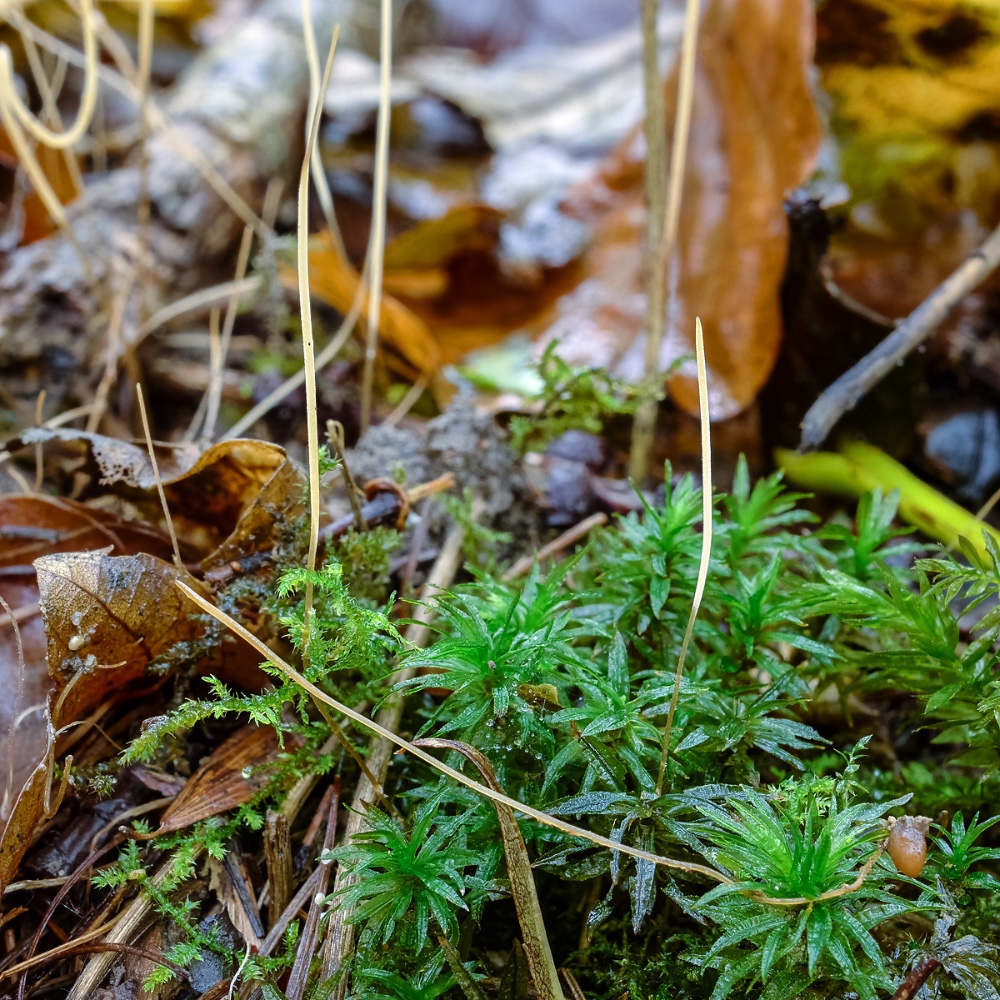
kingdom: Fungi
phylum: Basidiomycota
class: Agaricomycetes
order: Agaricales
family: Typhulaceae
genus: Macrotyphula
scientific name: Macrotyphula phacorrhiza
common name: lang rørkølle
